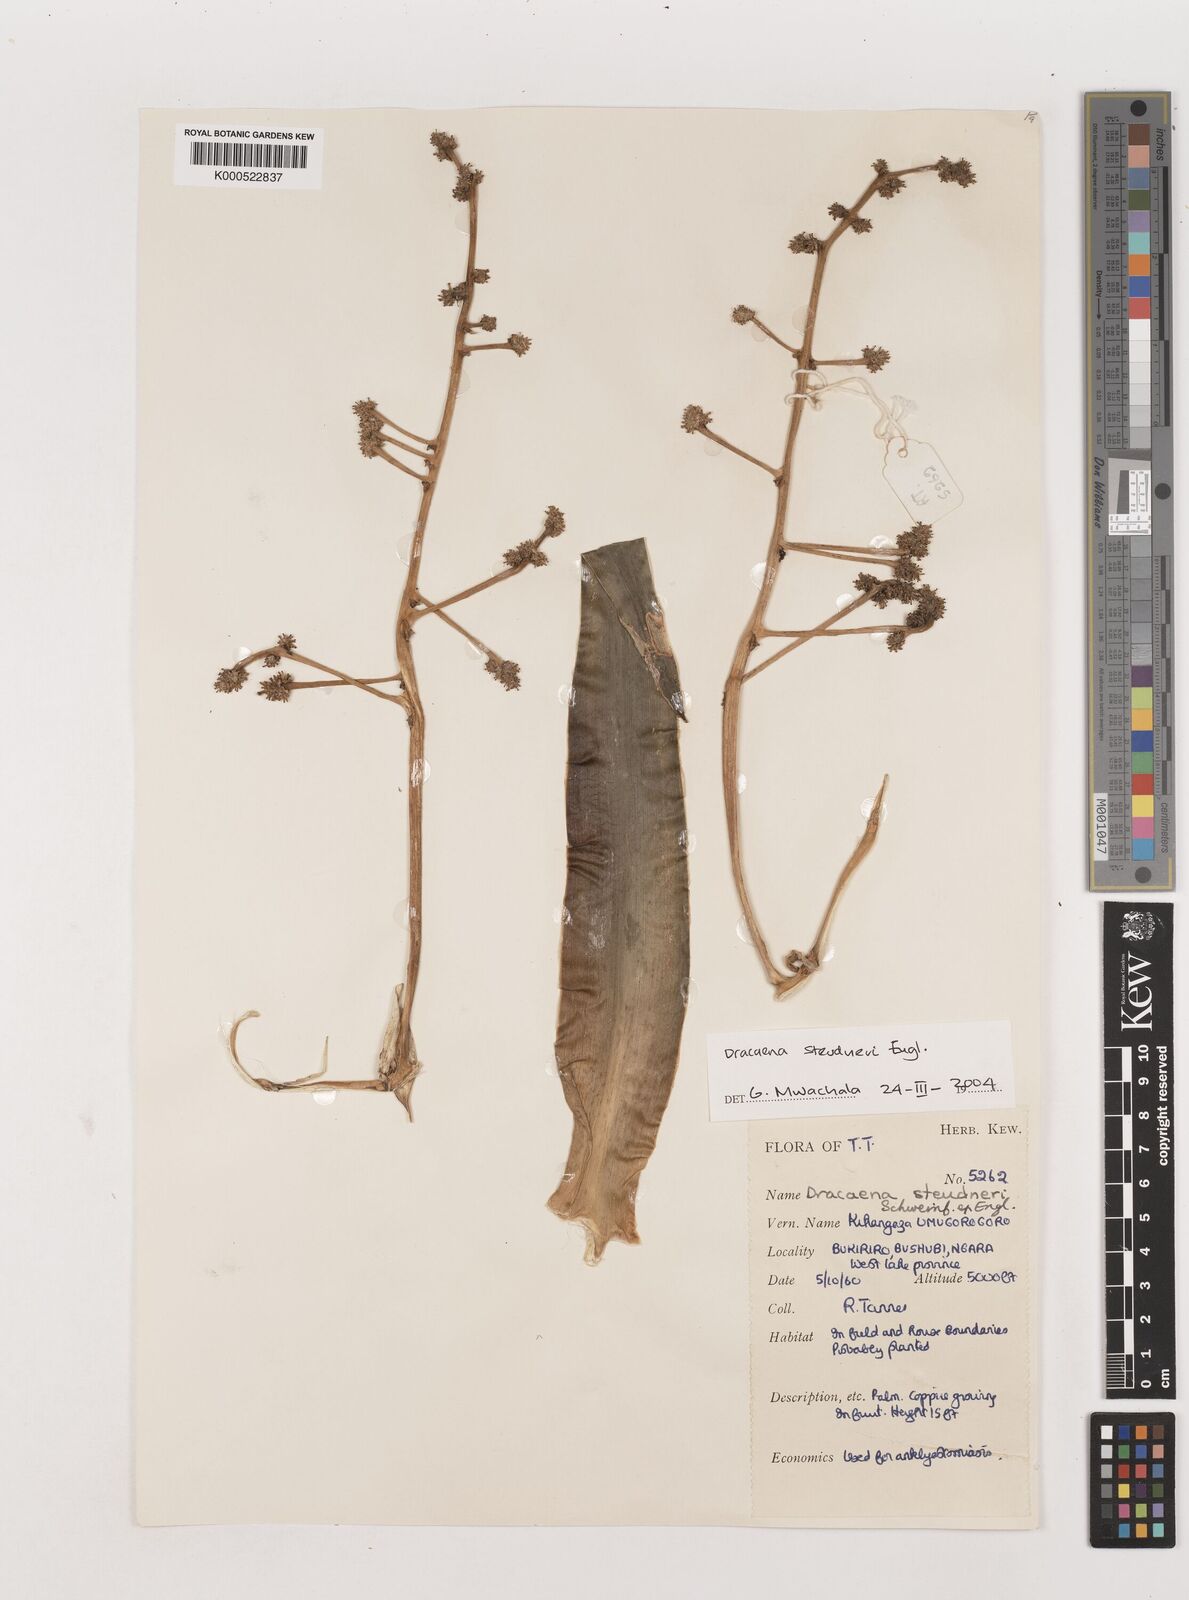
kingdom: Plantae
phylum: Tracheophyta
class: Liliopsida
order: Asparagales
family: Asparagaceae
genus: Dracaena
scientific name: Dracaena steudneri
